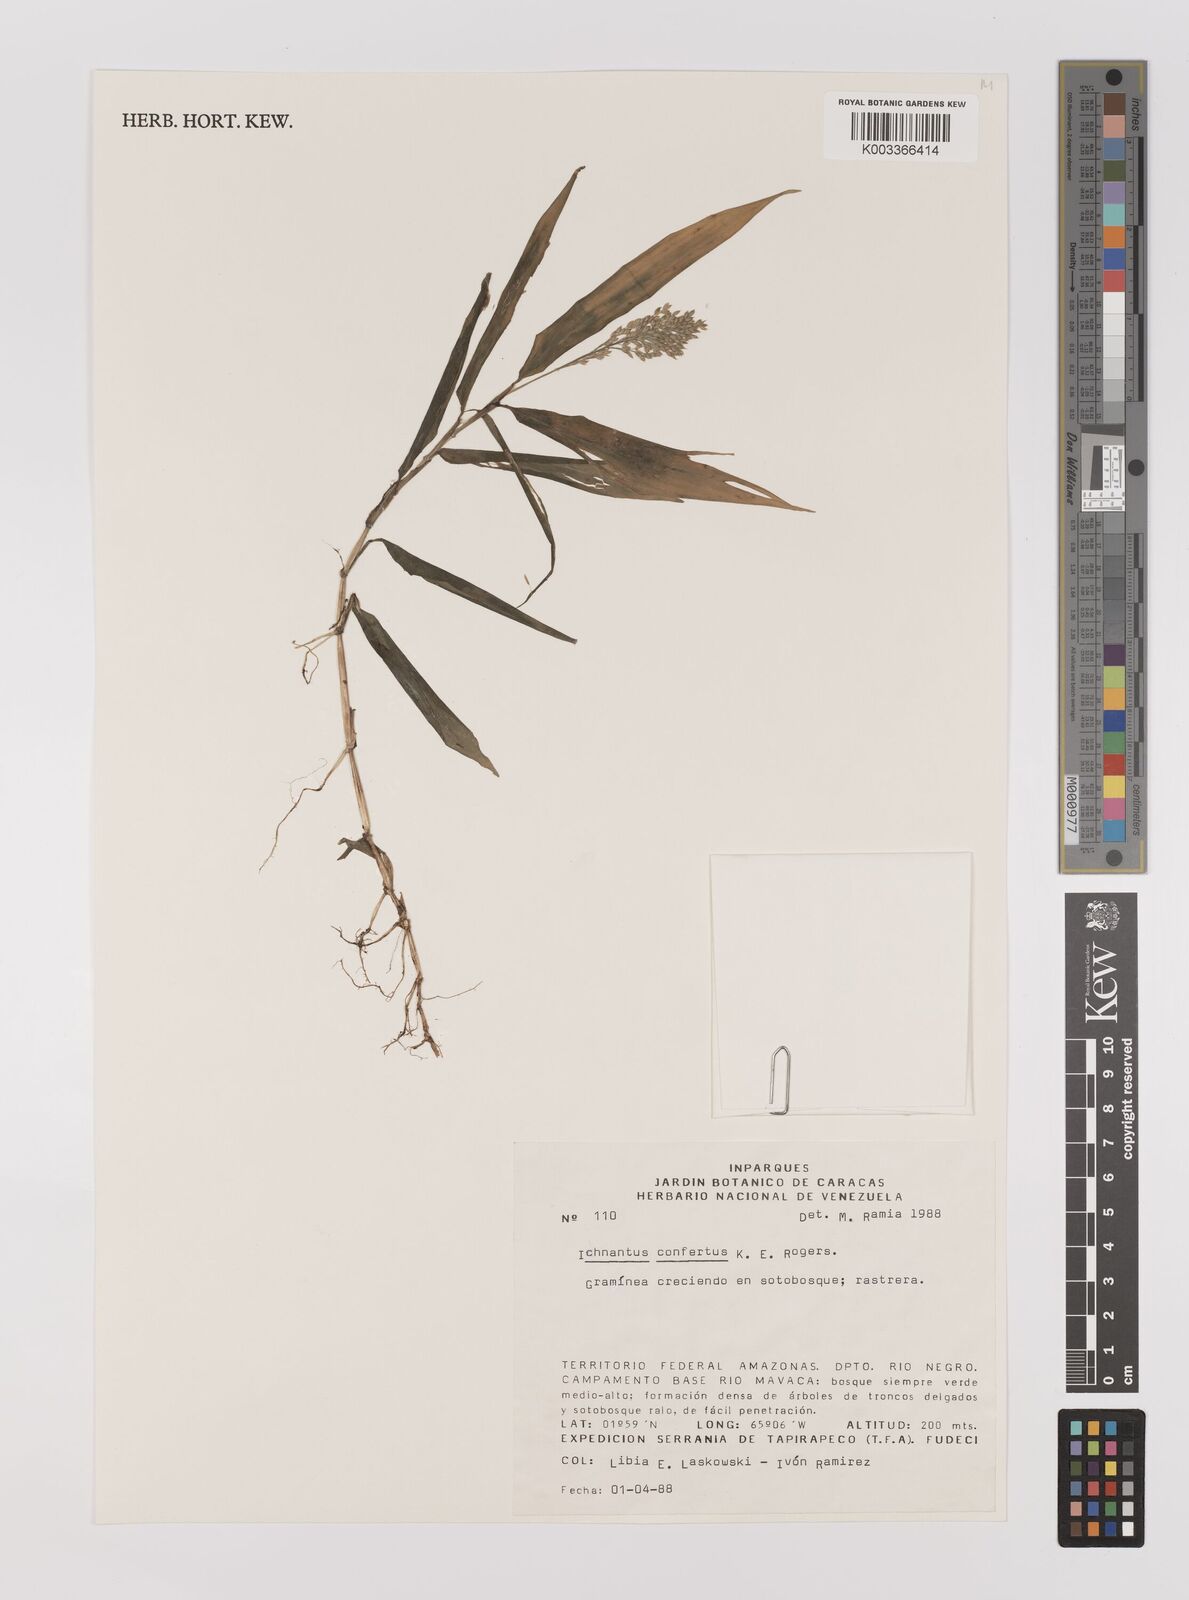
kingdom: Plantae
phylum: Tracheophyta
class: Liliopsida
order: Poales
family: Poaceae
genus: Ichnanthus
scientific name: Ichnanthus pallens
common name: Water grass
